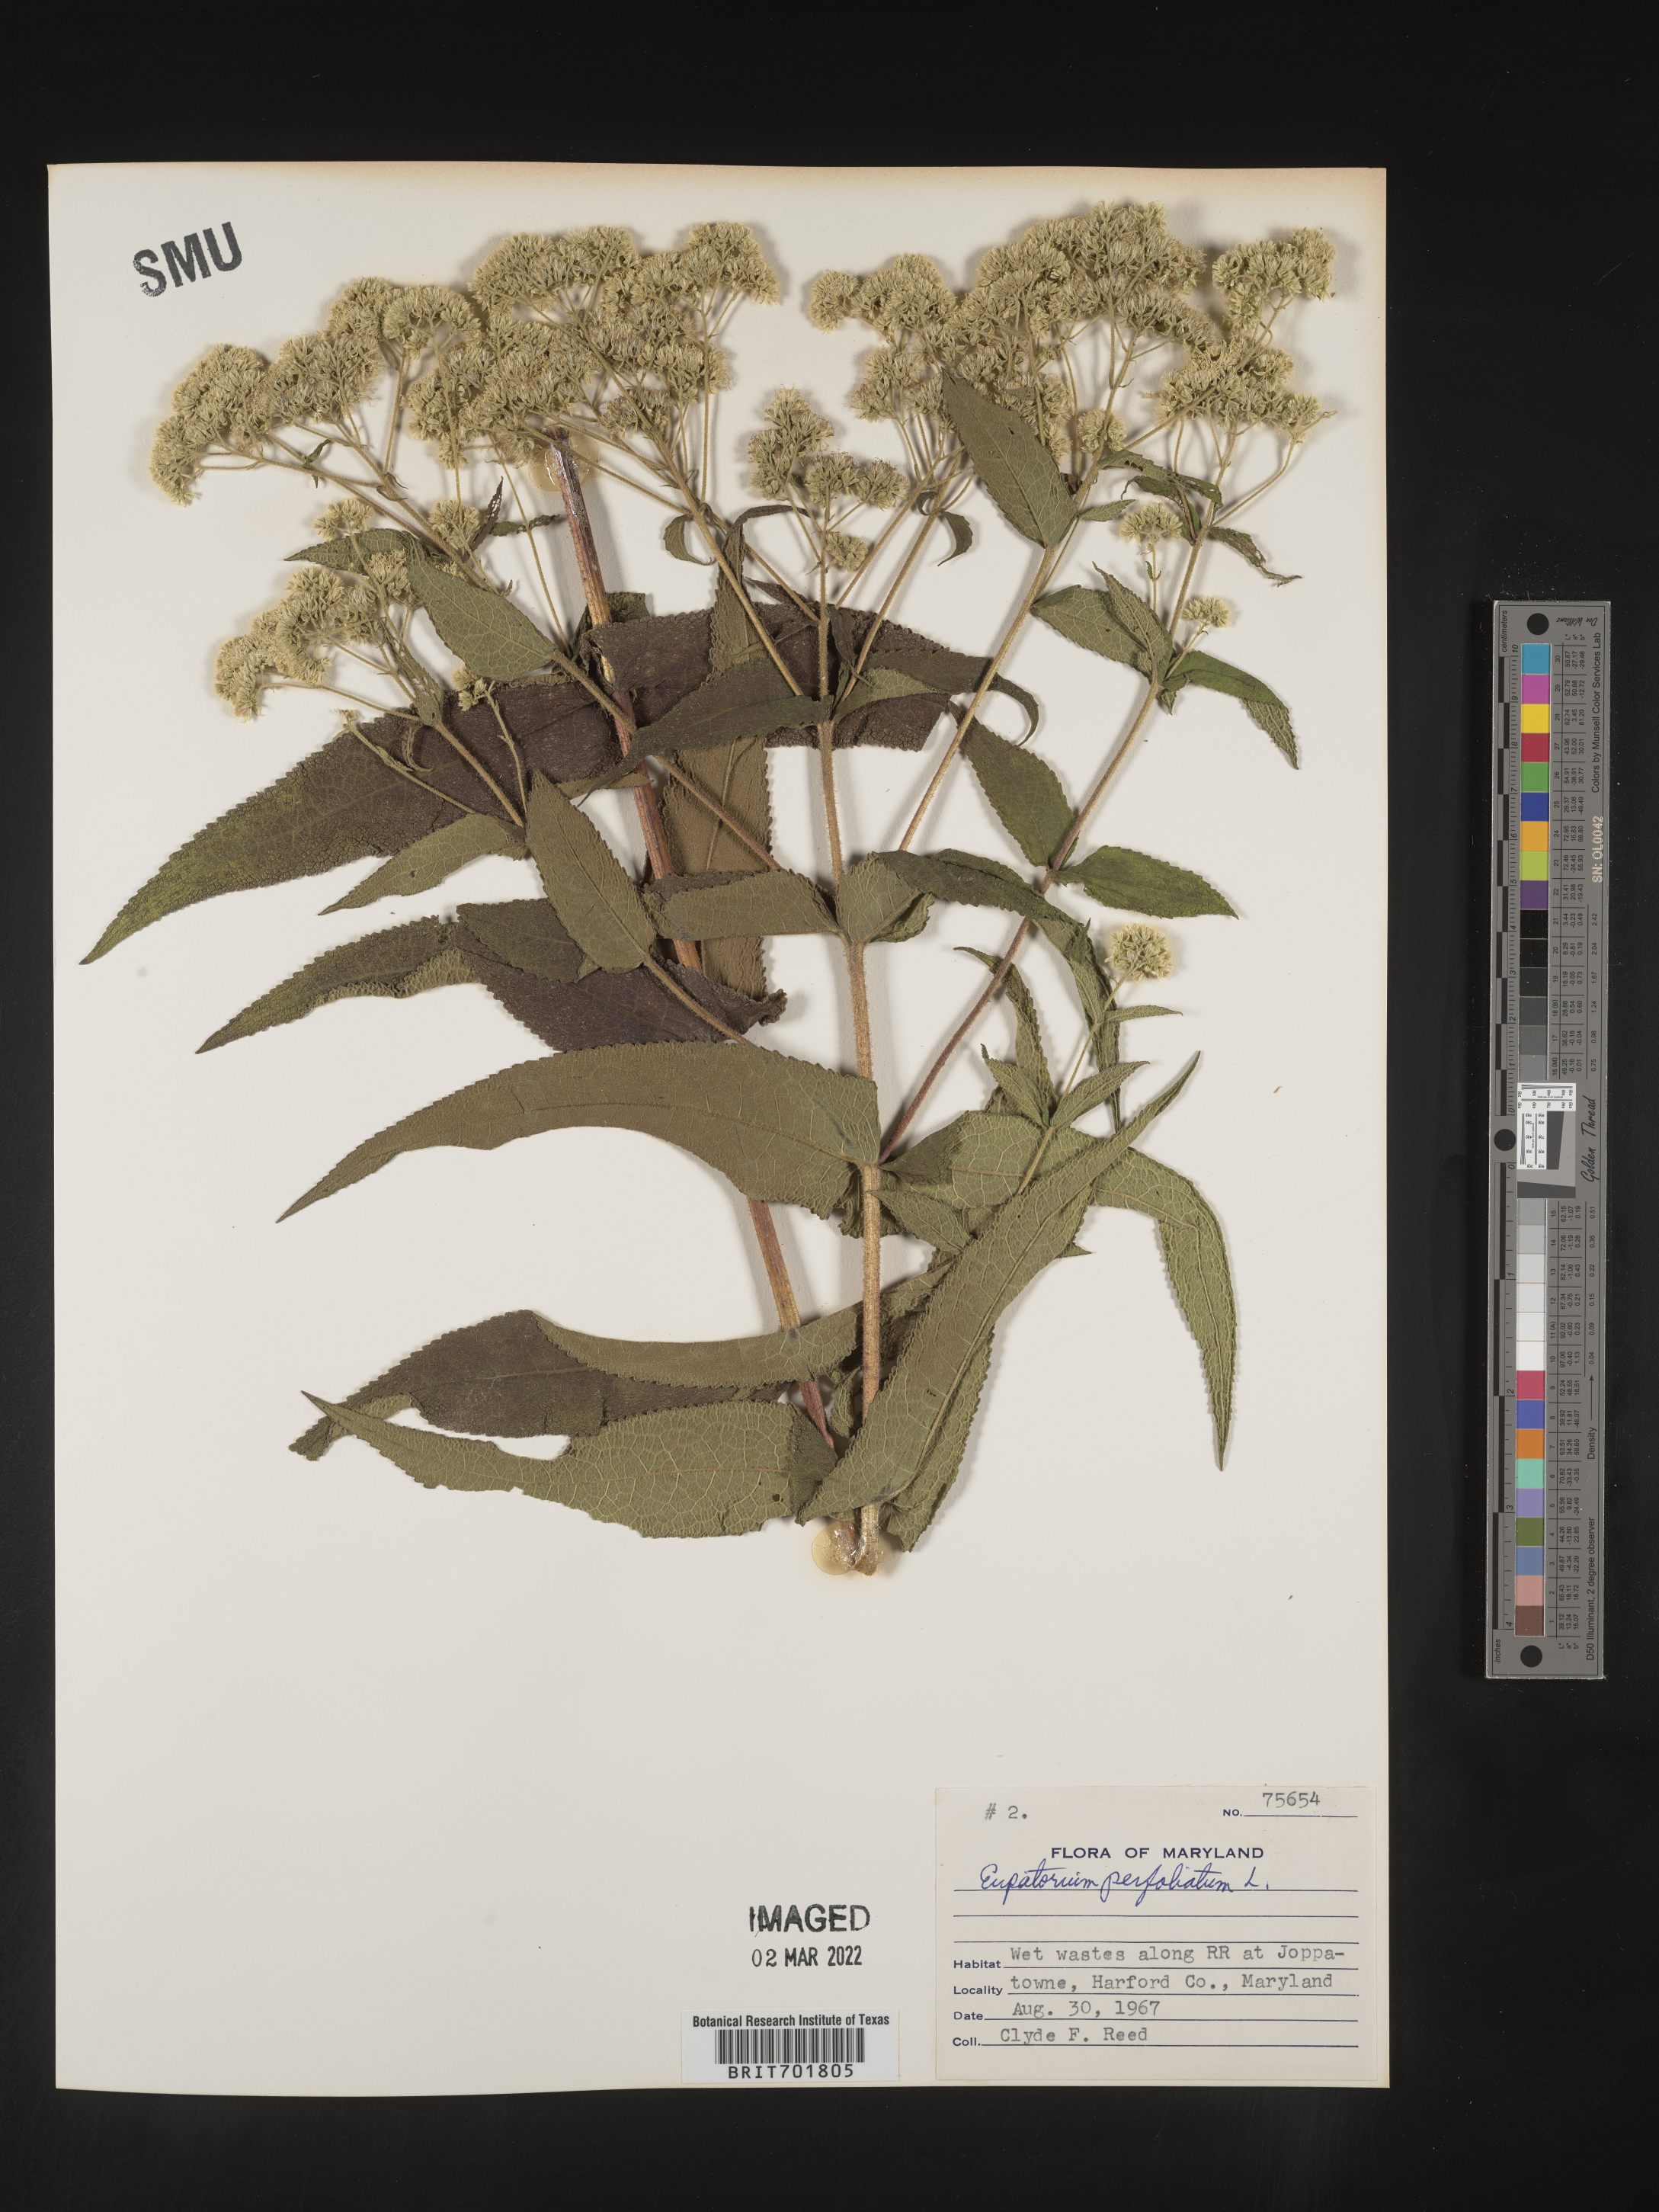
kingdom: Plantae
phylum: Tracheophyta
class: Magnoliopsida
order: Asterales
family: Asteraceae
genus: Eupatorium
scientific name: Eupatorium perfoliatum
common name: Boneset
